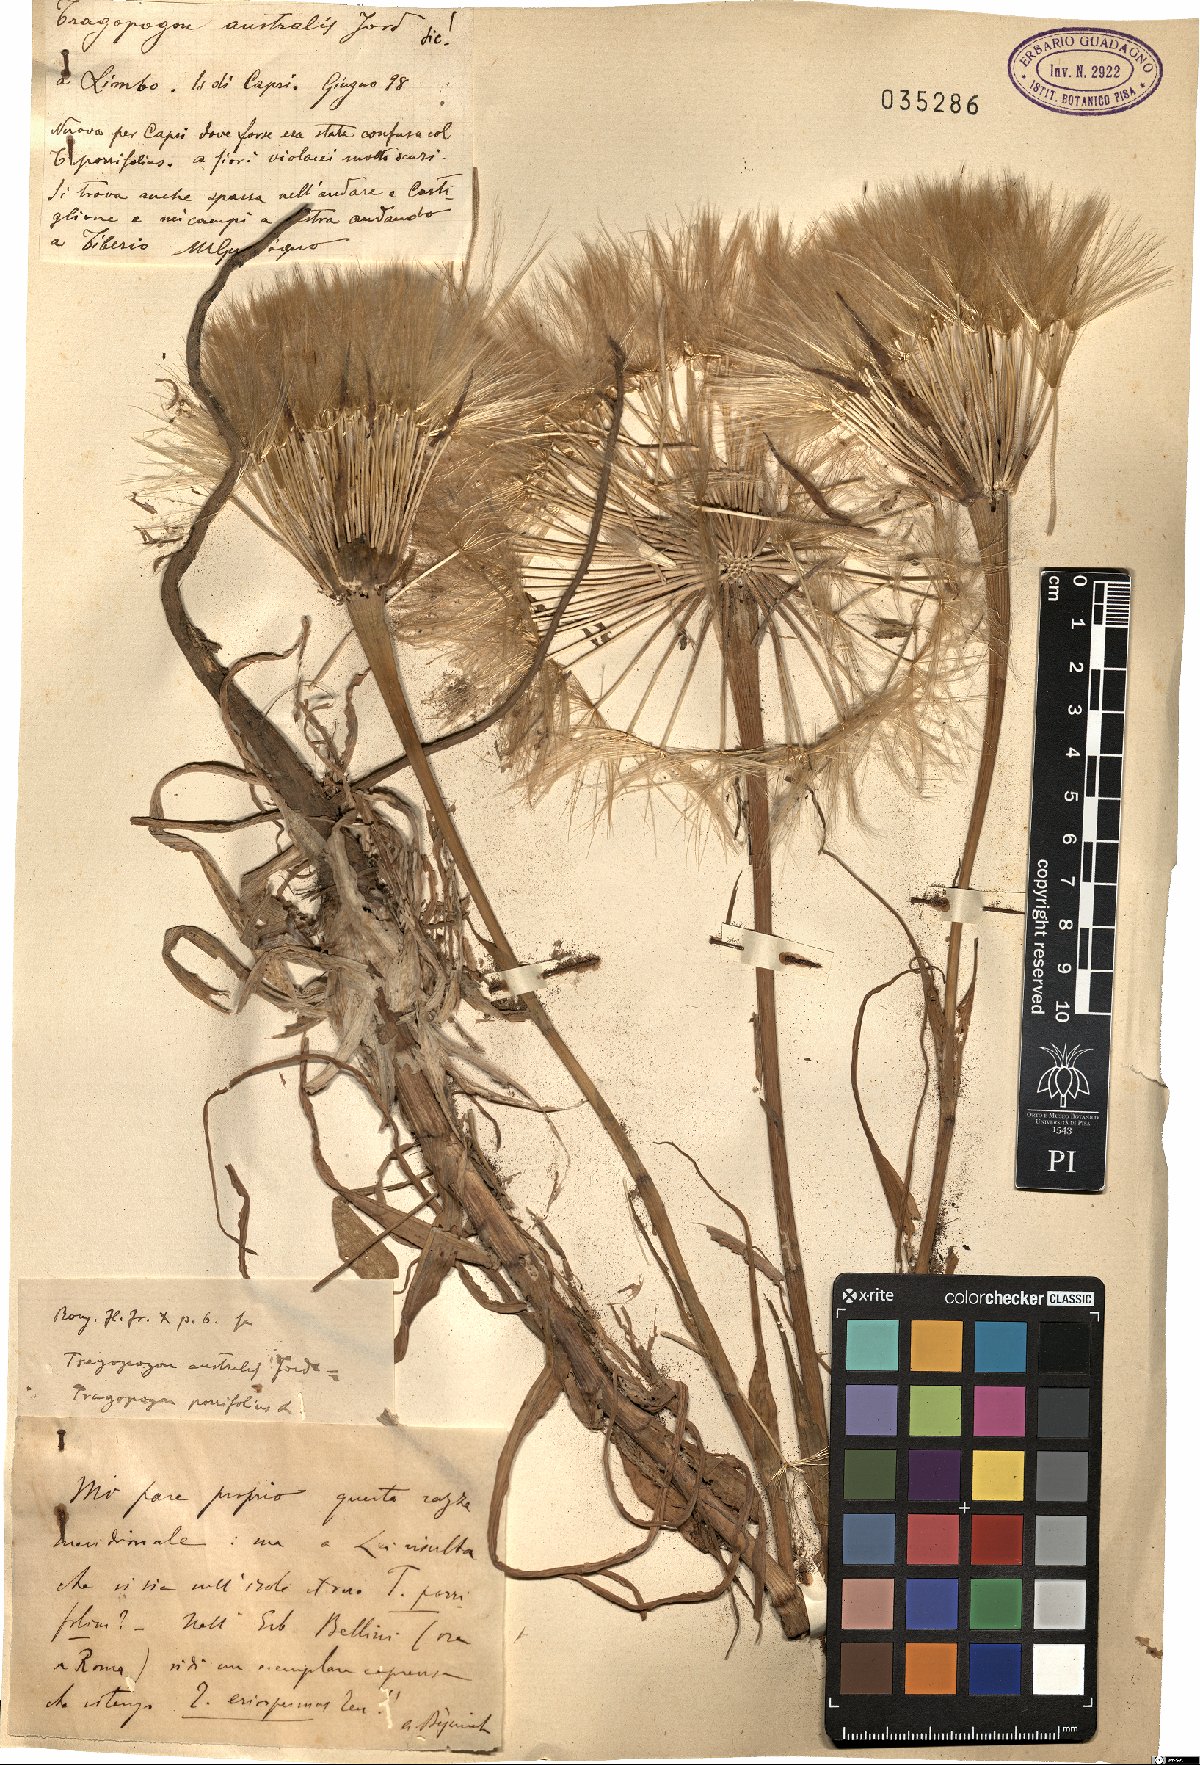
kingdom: Plantae
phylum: Tracheophyta
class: Magnoliopsida
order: Asterales
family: Asteraceae
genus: Tragopogon
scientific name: Tragopogon porrifolius
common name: Salsify
